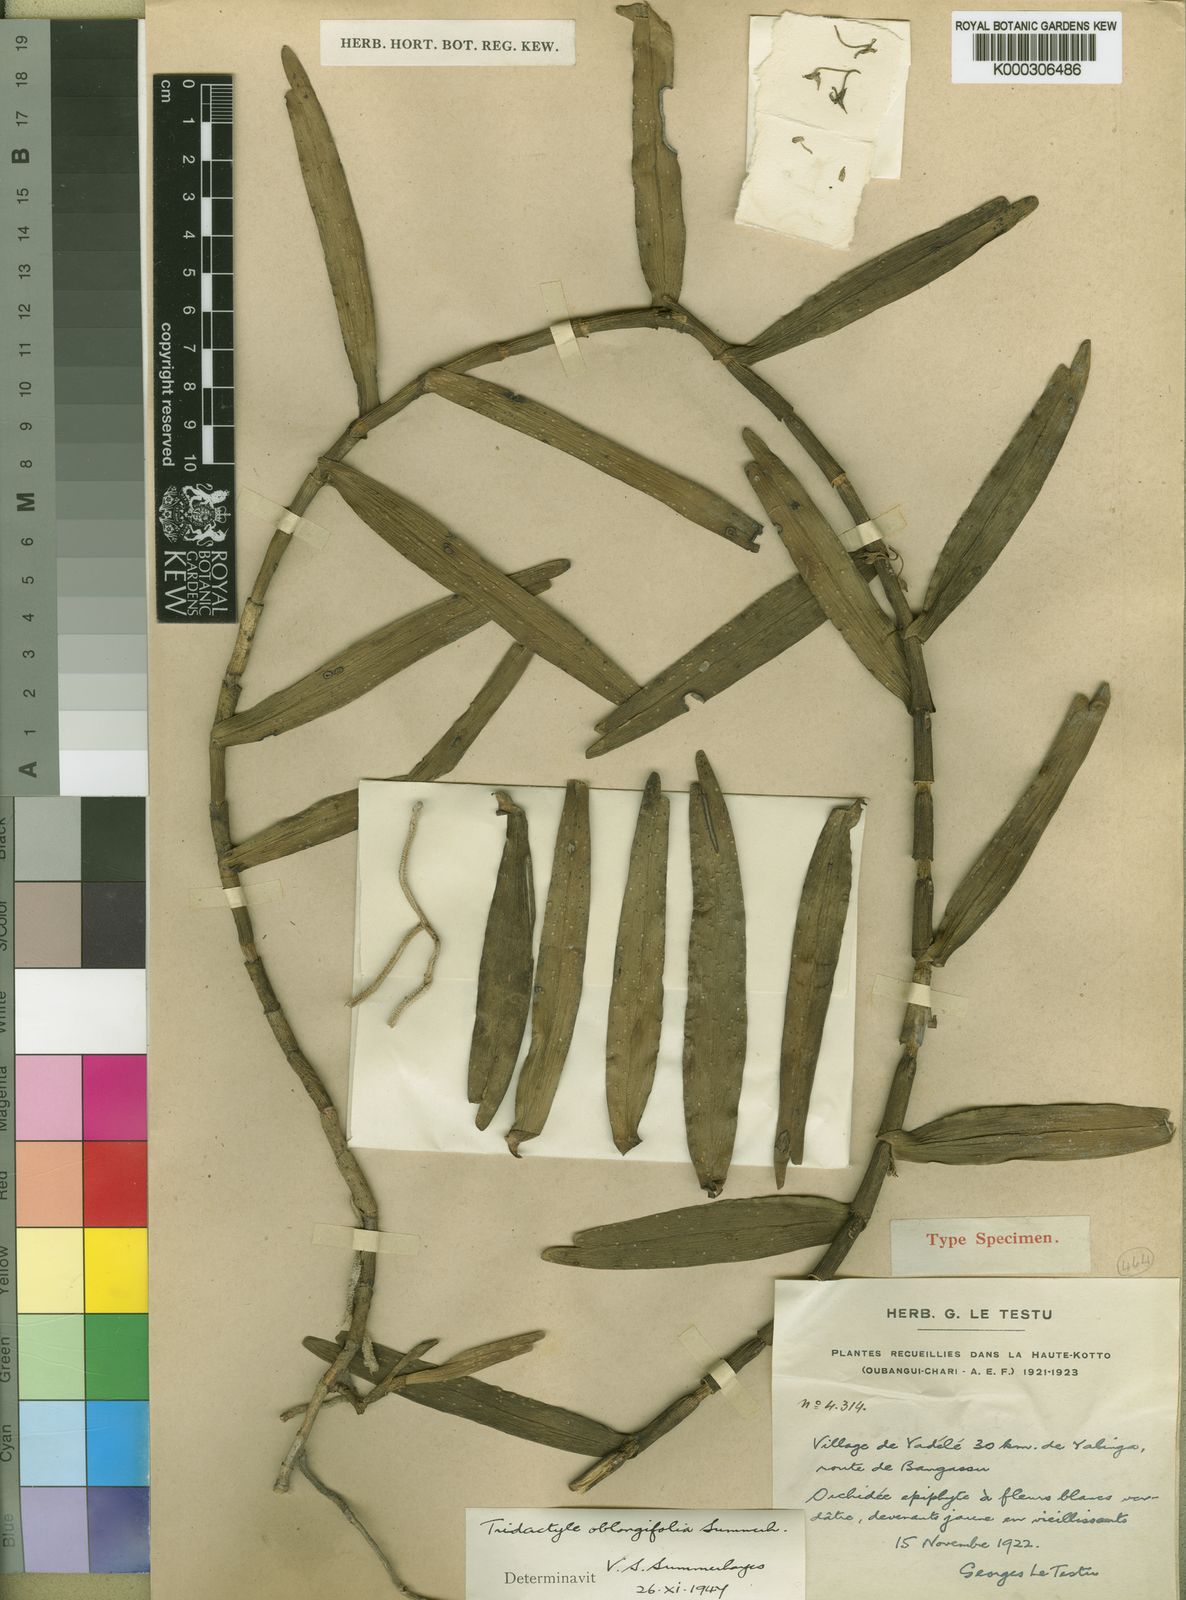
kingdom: Plantae
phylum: Tracheophyta
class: Liliopsida
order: Asparagales
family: Orchidaceae
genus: Tridactyle
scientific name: Tridactyle oblongifolia
